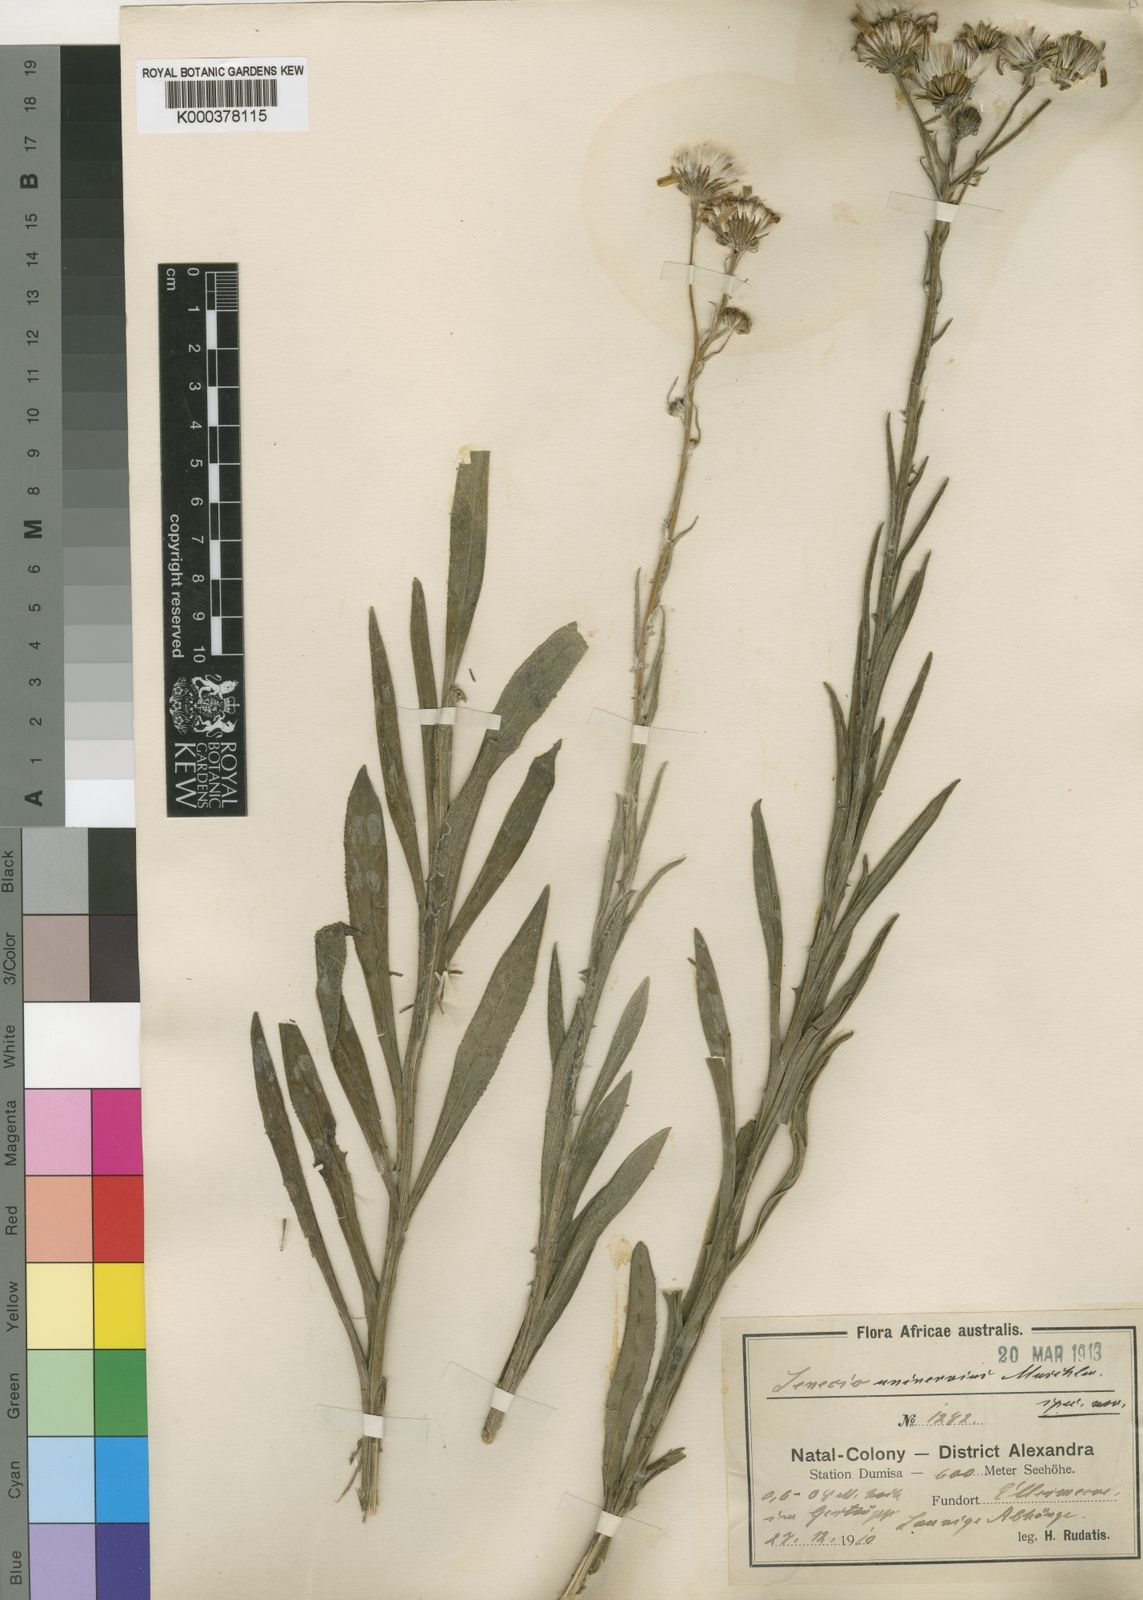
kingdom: Plantae
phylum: Tracheophyta
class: Magnoliopsida
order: Asterales
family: Asteraceae
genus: Senecio
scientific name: Senecio dregeanus
